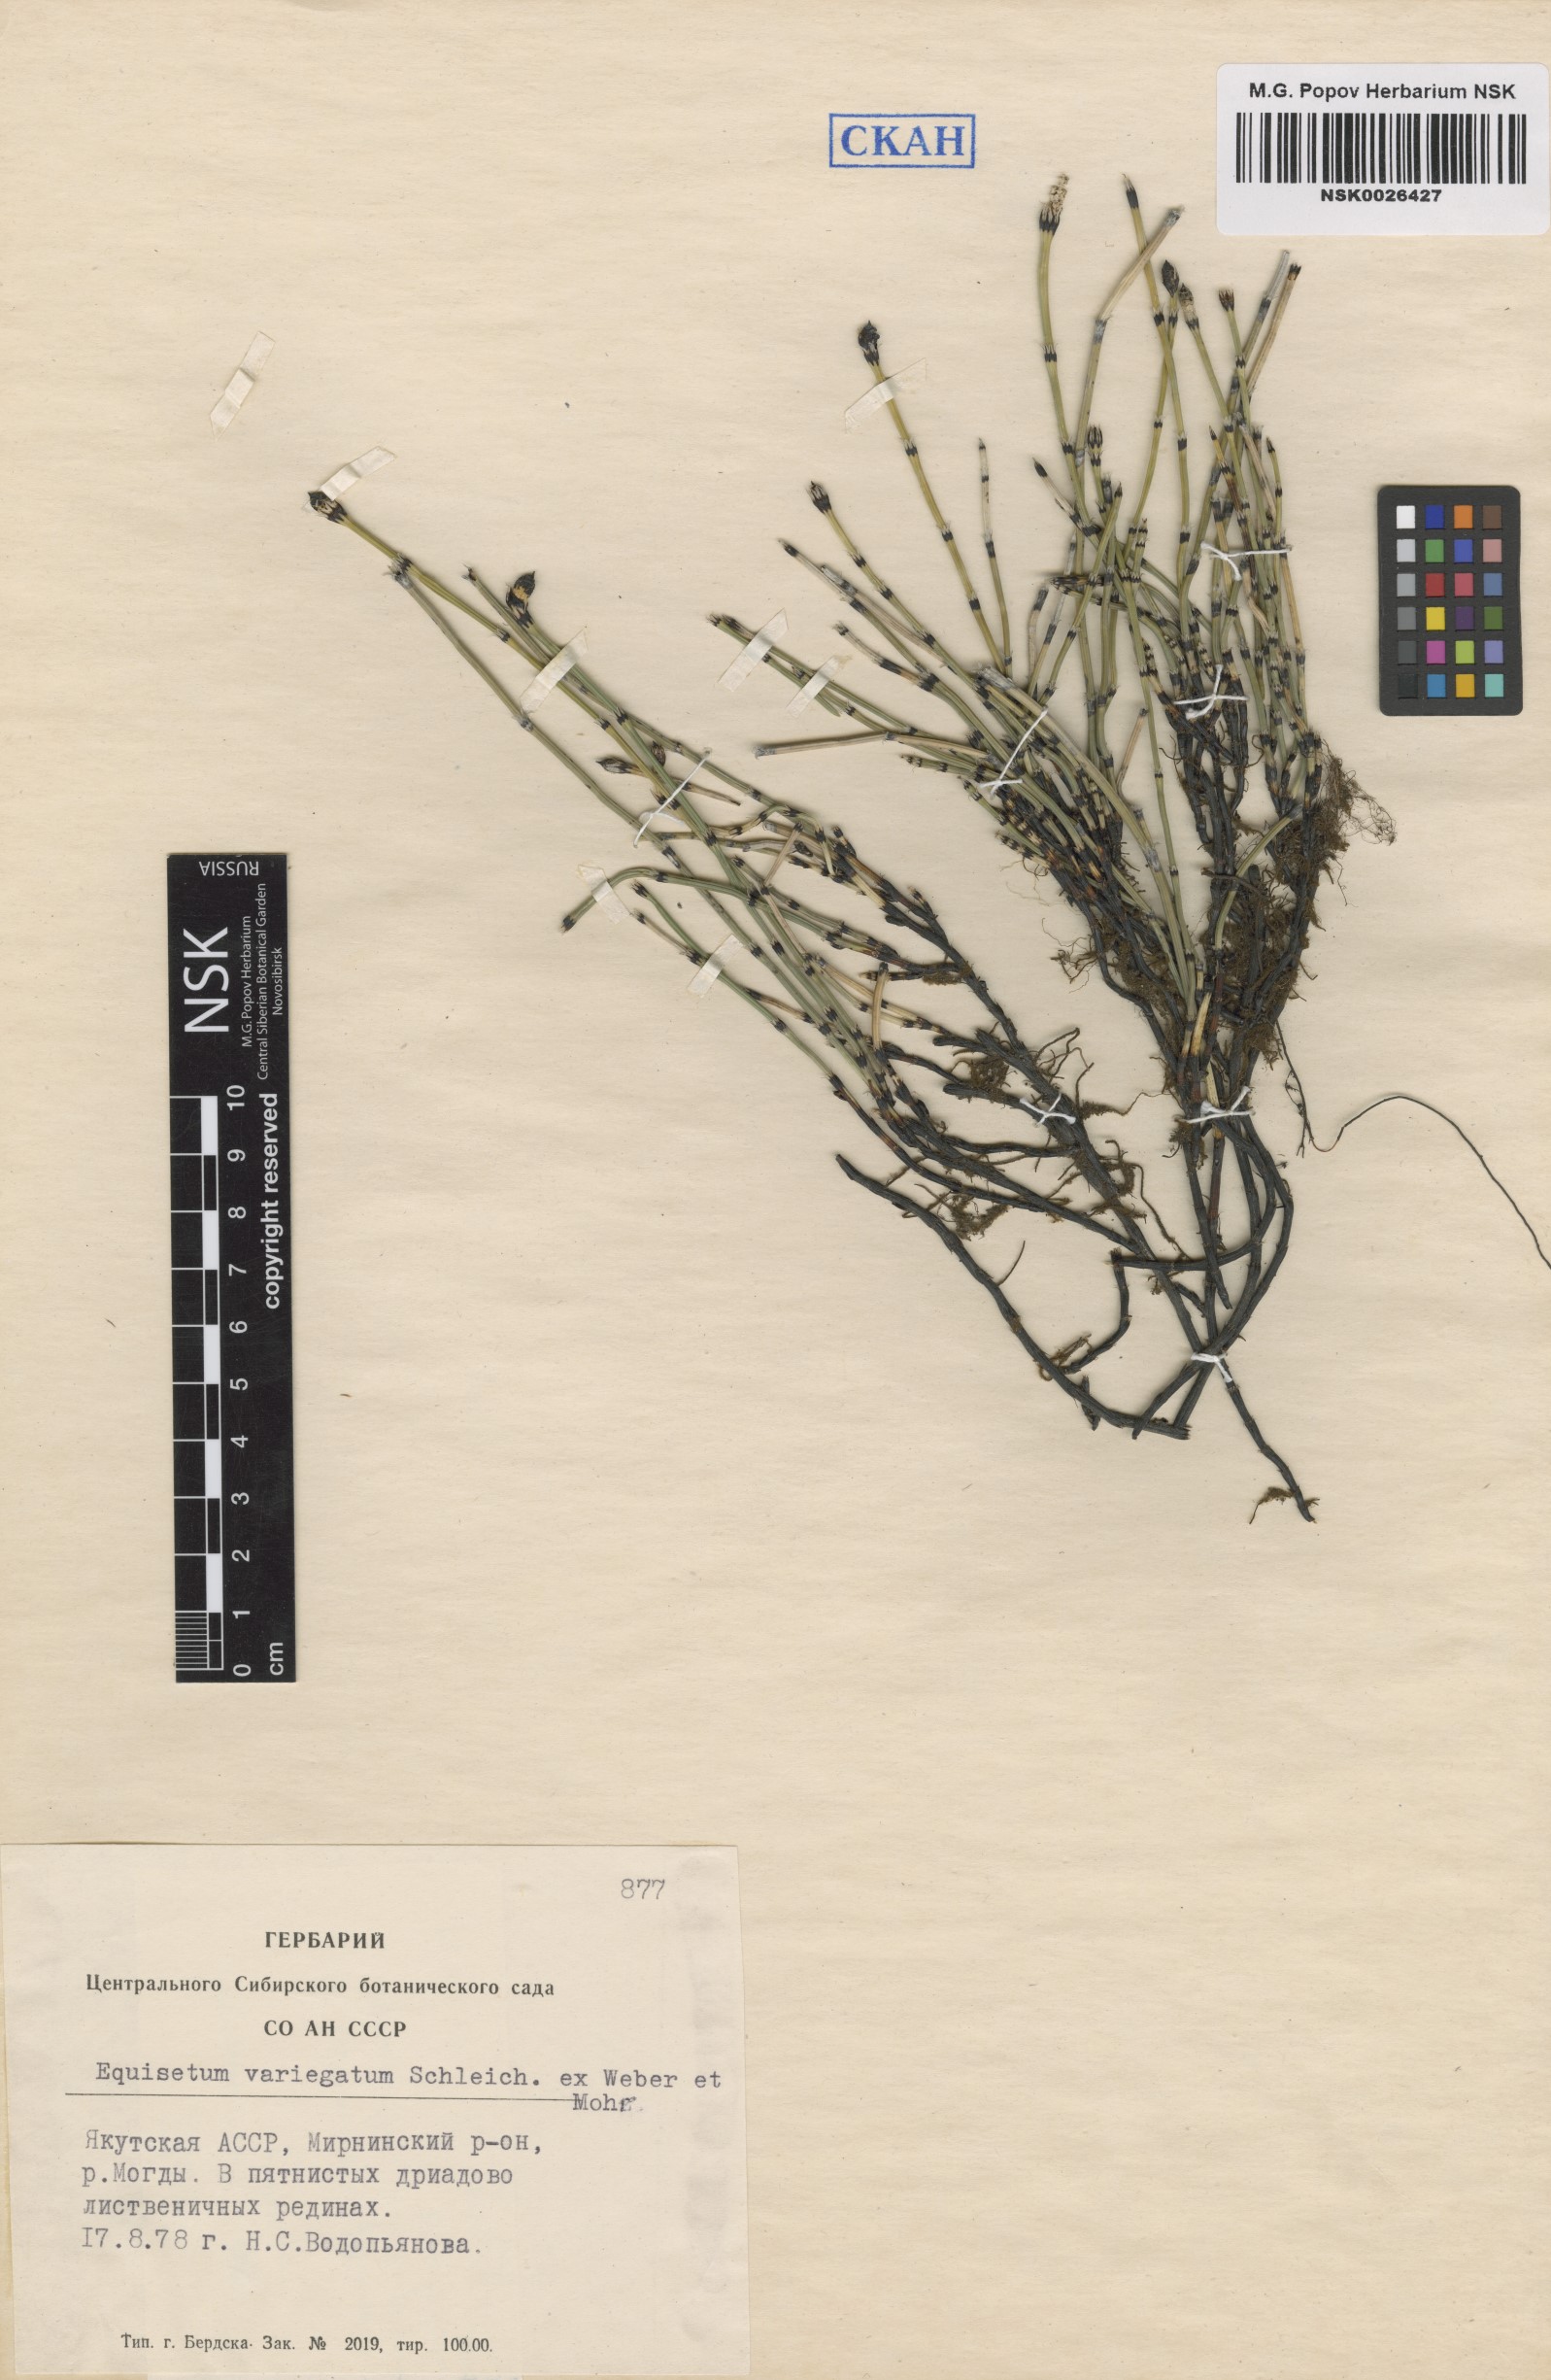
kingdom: Plantae
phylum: Tracheophyta
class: Polypodiopsida
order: Equisetales
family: Equisetaceae
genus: Equisetum
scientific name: Equisetum variegatum
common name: Variegated horsetail
